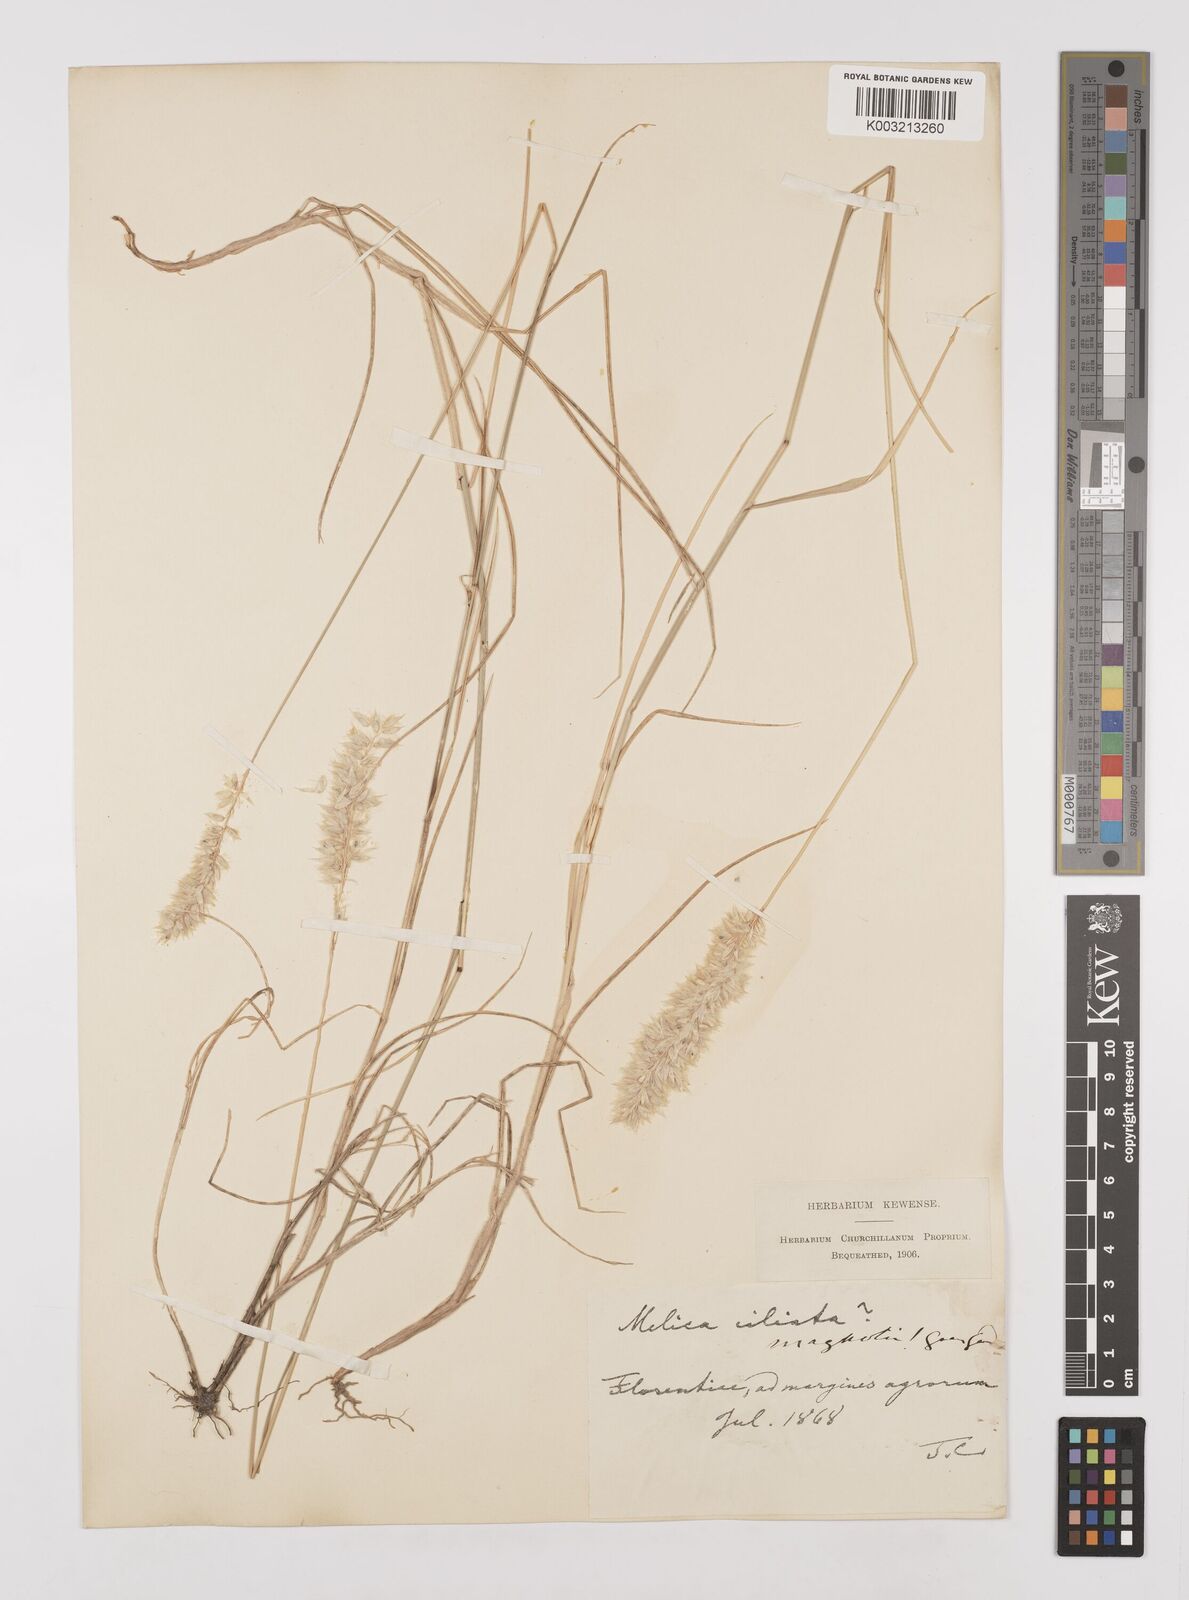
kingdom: Plantae
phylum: Tracheophyta
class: Liliopsida
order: Poales
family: Poaceae
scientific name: Poaceae
